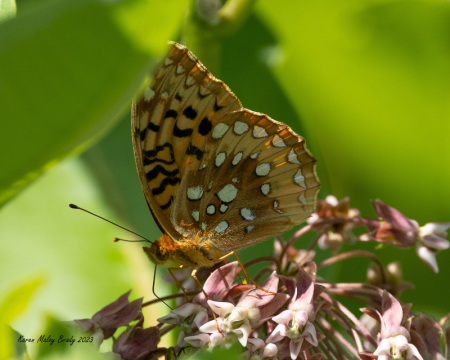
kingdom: Animalia
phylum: Arthropoda
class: Insecta
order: Lepidoptera
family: Nymphalidae
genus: Speyeria
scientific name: Speyeria cybele
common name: Great Spangled Fritillary
